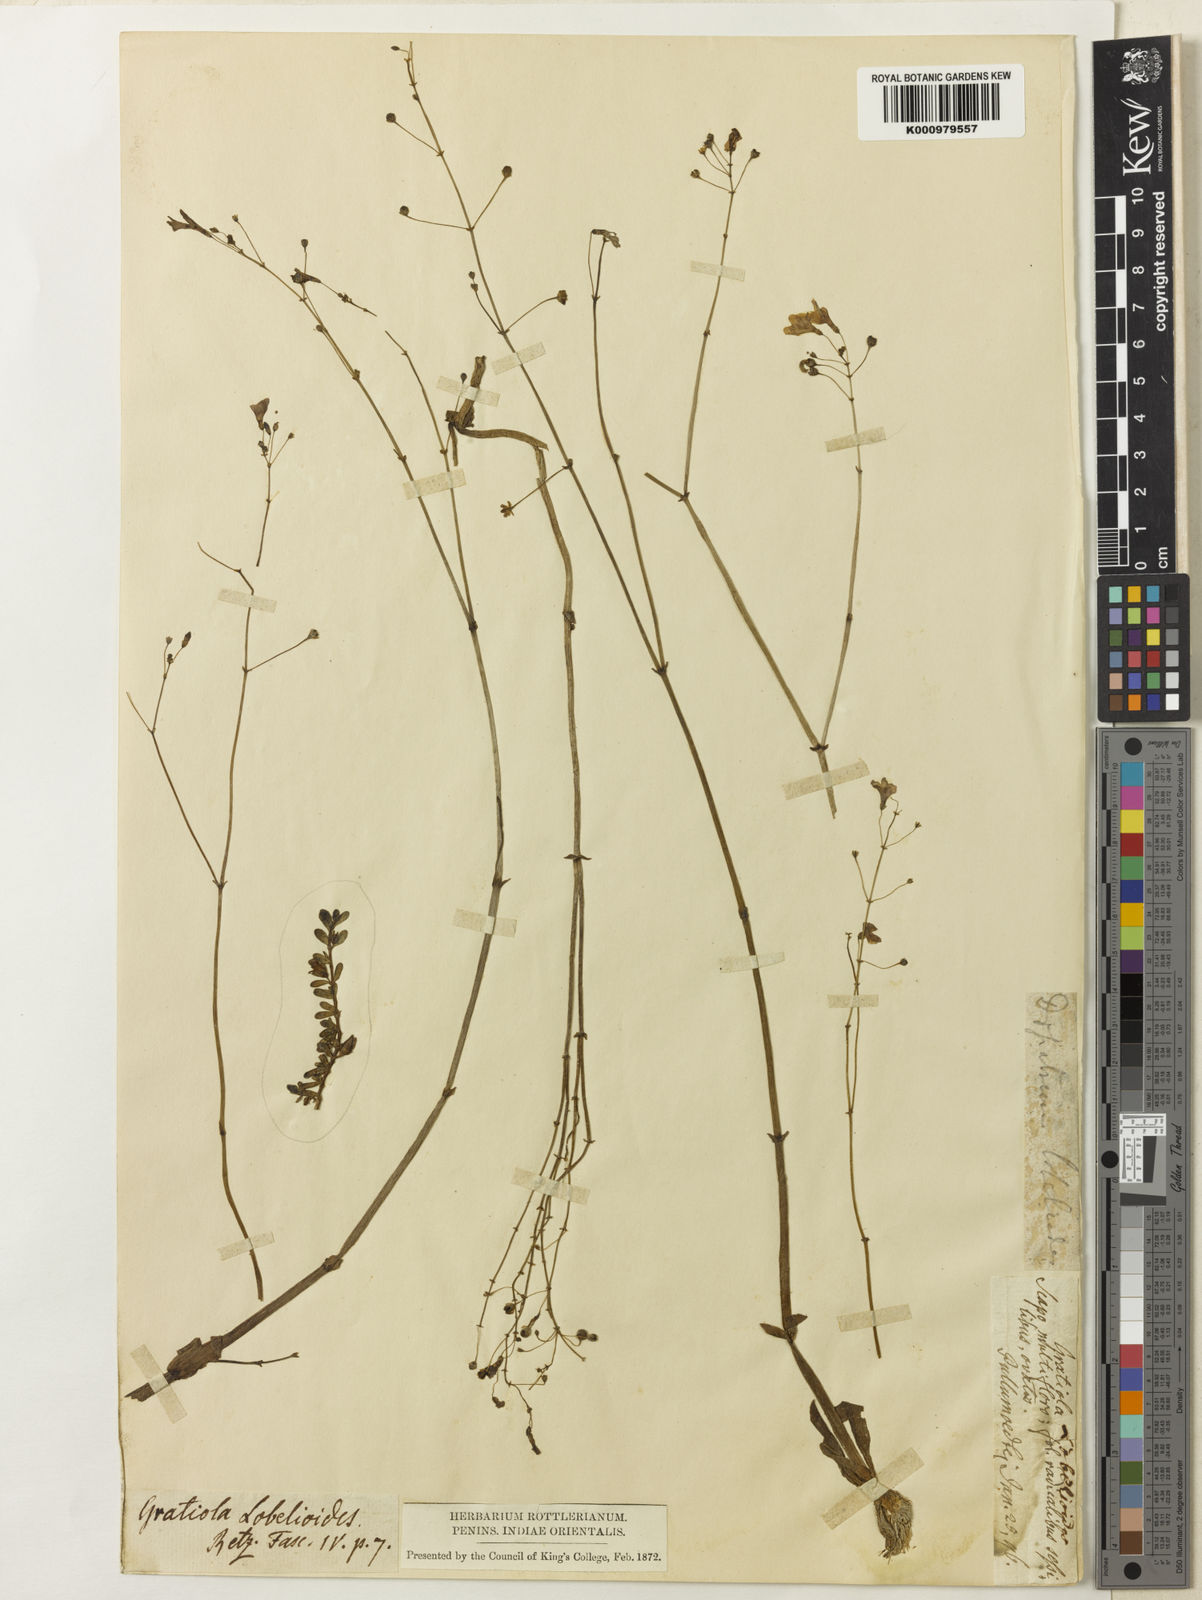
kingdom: Plantae
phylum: Tracheophyta
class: Magnoliopsida
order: Lamiales
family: Plantaginaceae
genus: Dopatrium
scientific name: Dopatrium lobelioides
